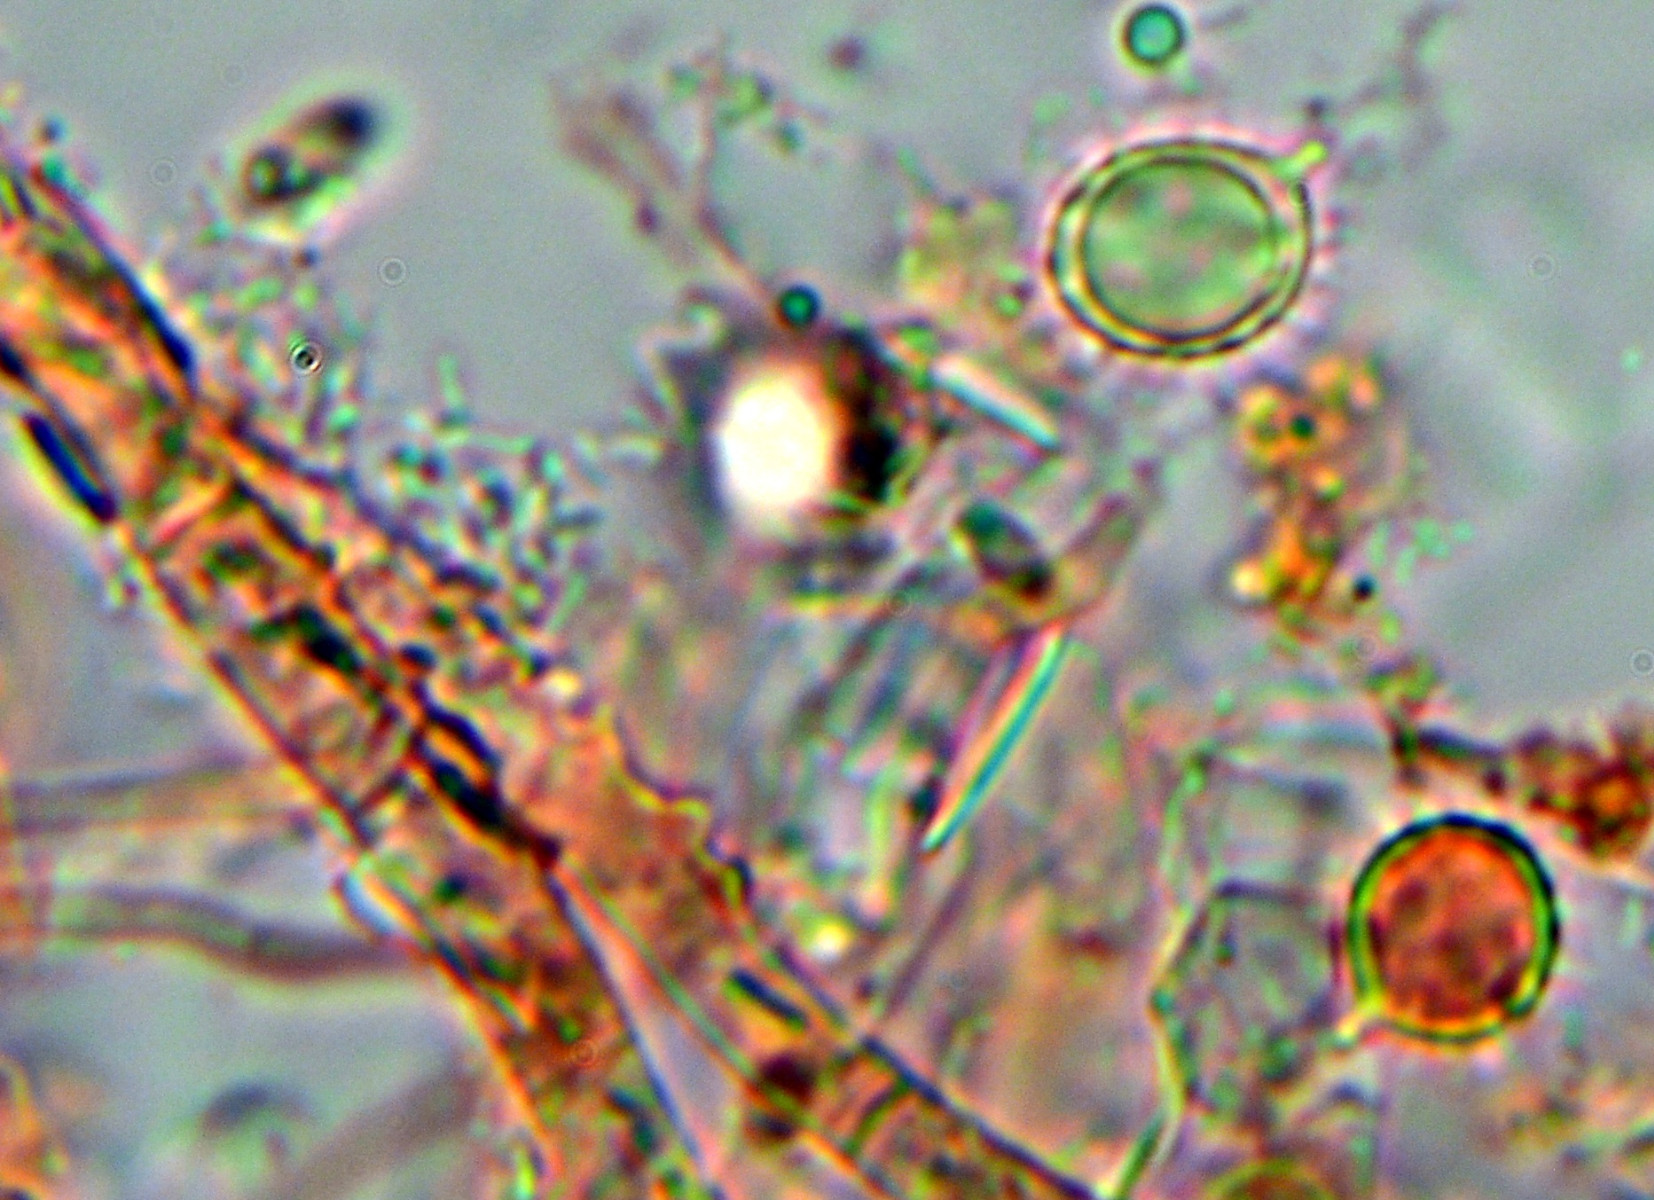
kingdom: Fungi
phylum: Basidiomycota
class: Agaricomycetes
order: Russulales
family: Russulaceae
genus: Russula
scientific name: Russula cuprea
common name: kanel-skørhat
